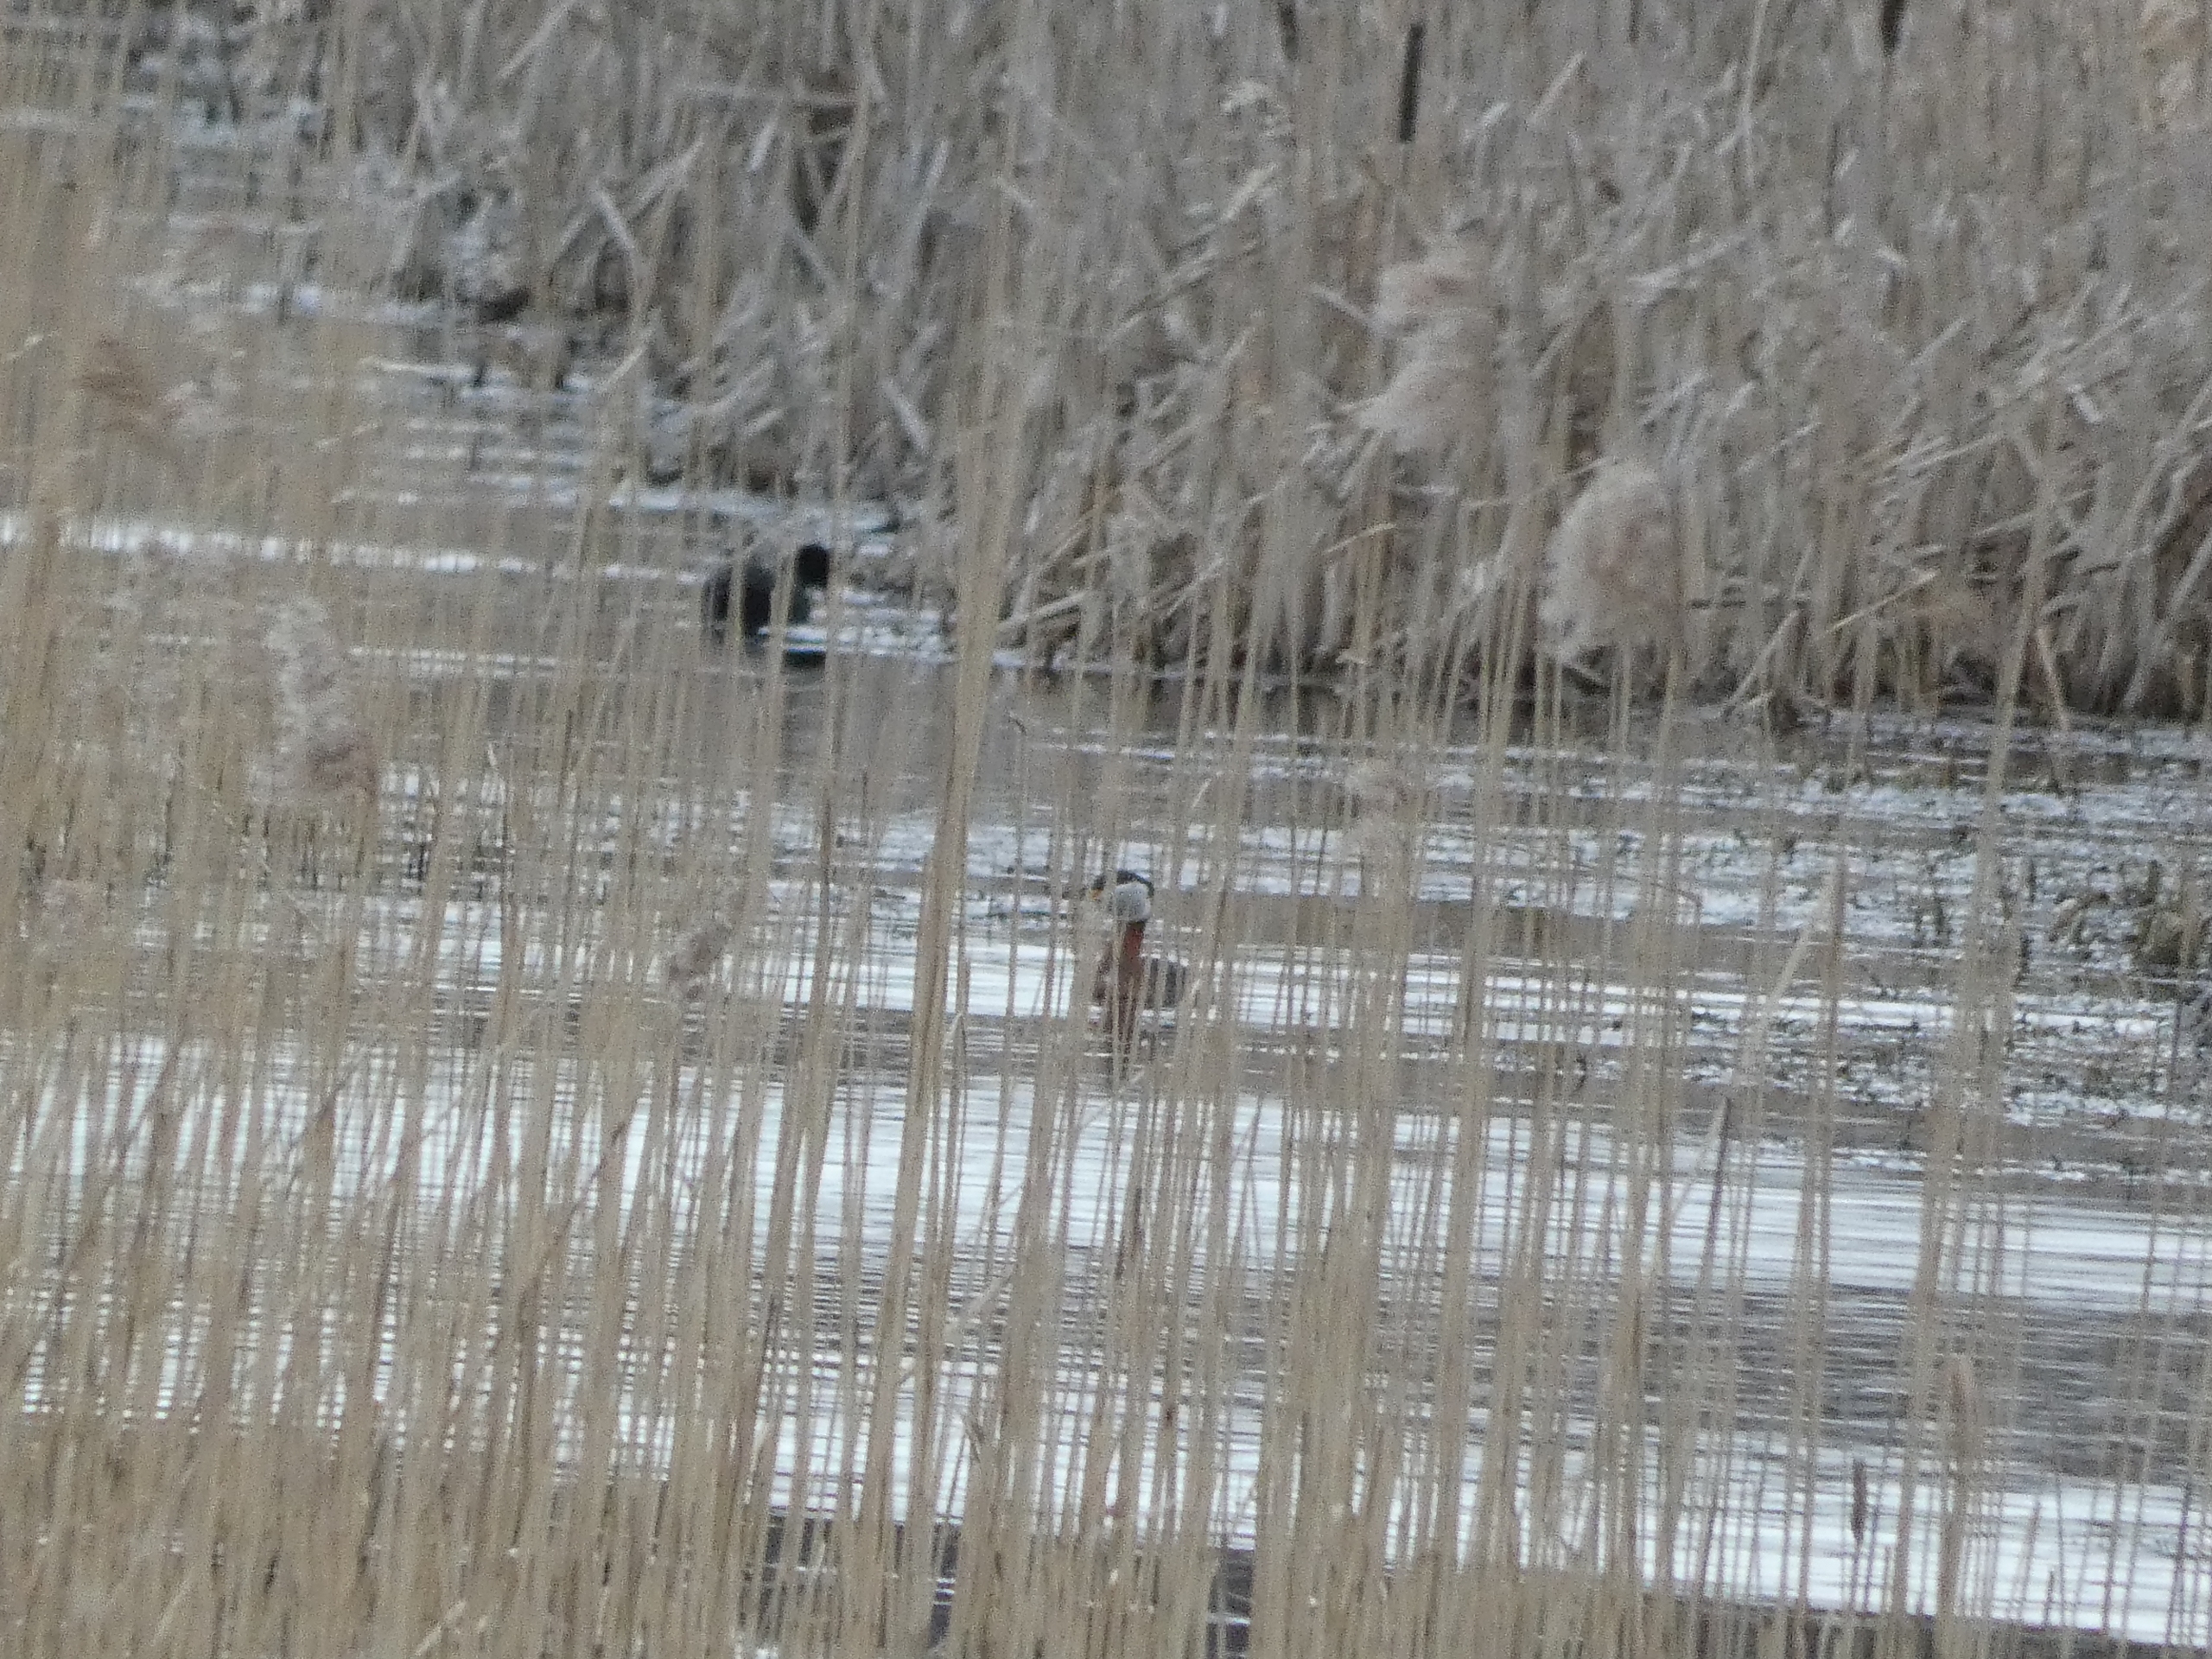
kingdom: Animalia
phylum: Chordata
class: Aves
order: Podicipediformes
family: Podicipedidae
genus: Podiceps
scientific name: Podiceps grisegena
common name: Gråstrubet lappedykker
